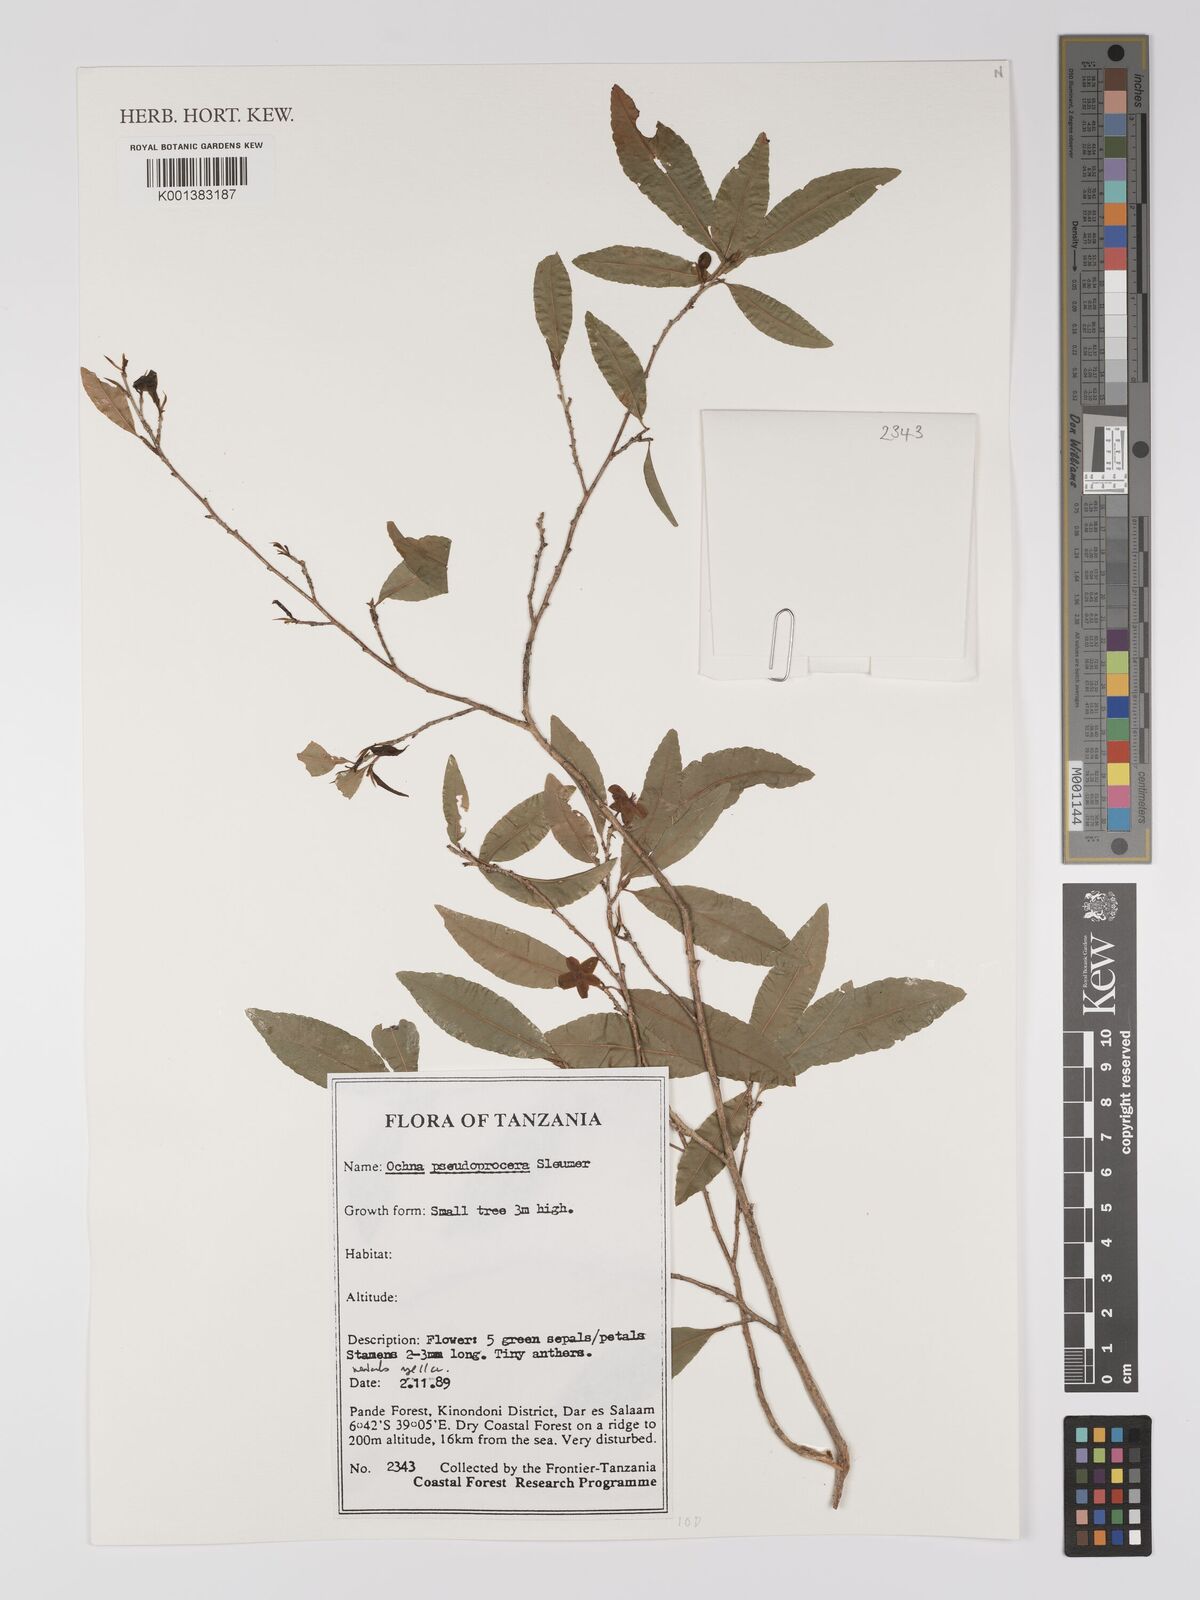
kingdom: Plantae
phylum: Tracheophyta
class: Magnoliopsida
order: Malpighiales
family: Ochnaceae
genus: Ochna
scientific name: Ochna pseudoprocera
